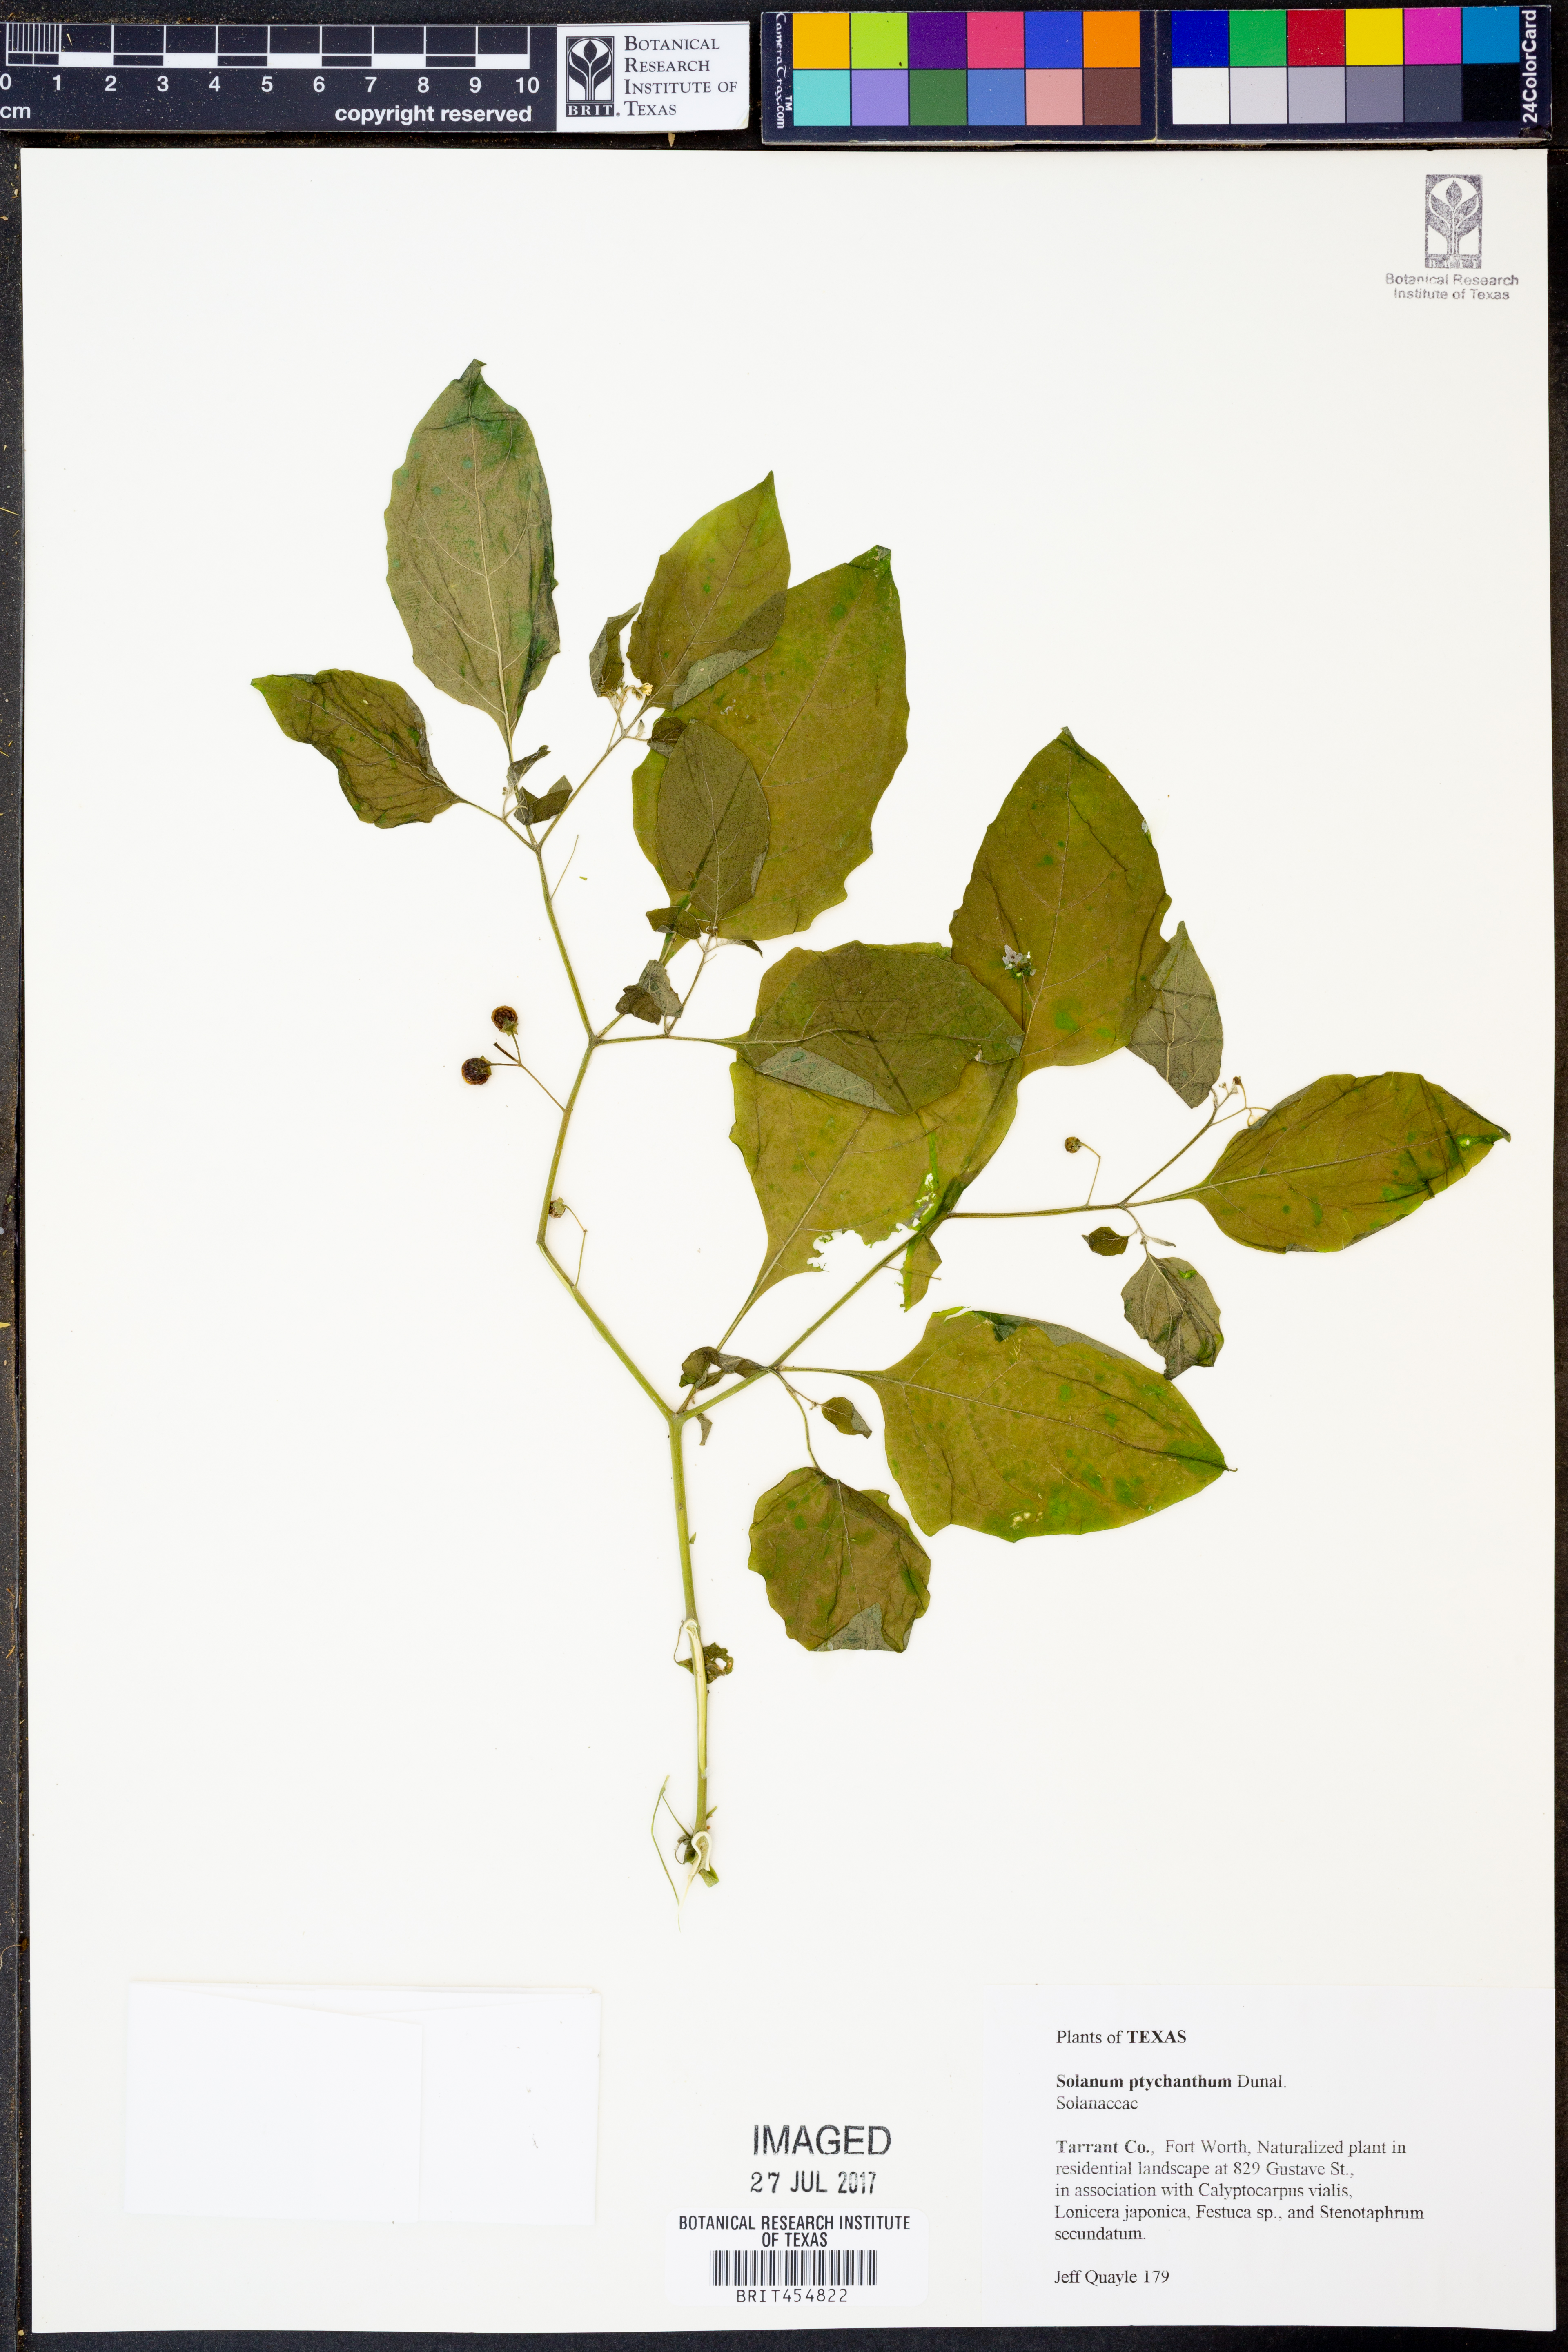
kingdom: Plantae
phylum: Tracheophyta
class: Magnoliopsida
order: Solanales
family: Solanaceae
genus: Solanum
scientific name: Solanum americanum
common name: American black nightshade
